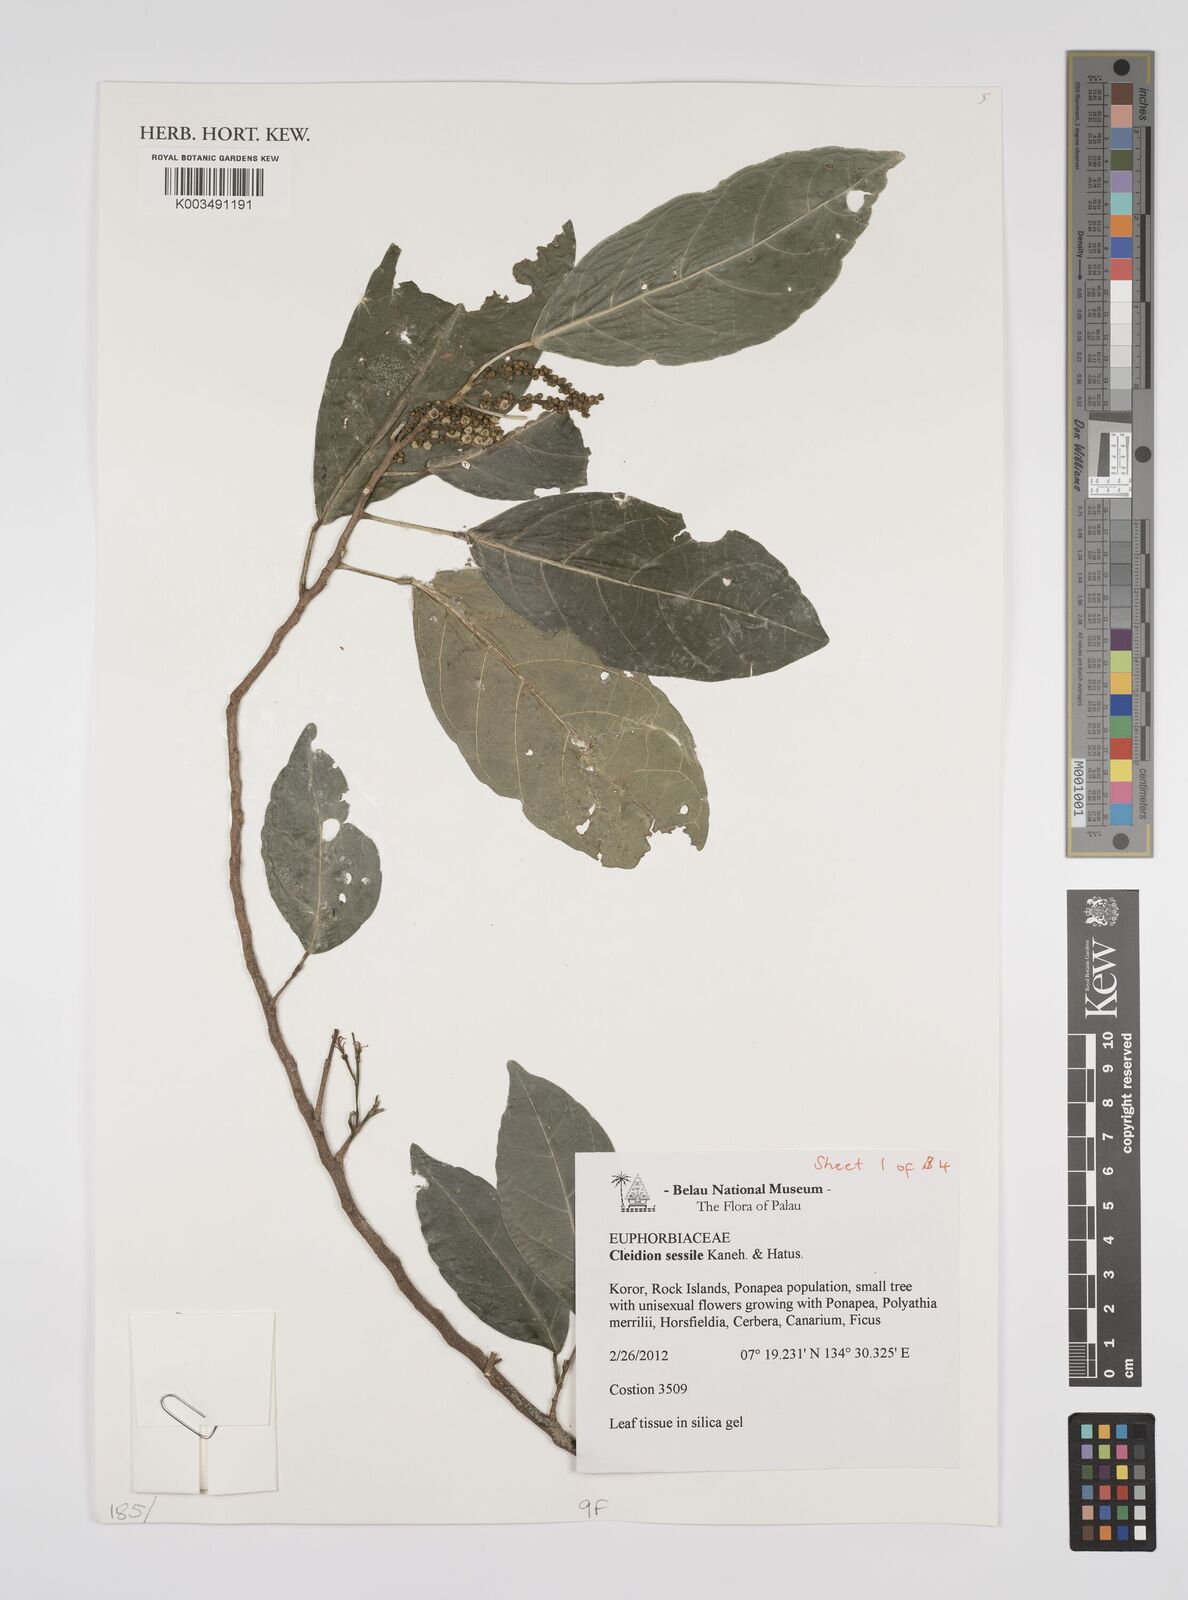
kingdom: Plantae
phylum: Tracheophyta
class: Magnoliopsida
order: Malpighiales
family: Euphorbiaceae
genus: Cleidion
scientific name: Cleidion sessile
